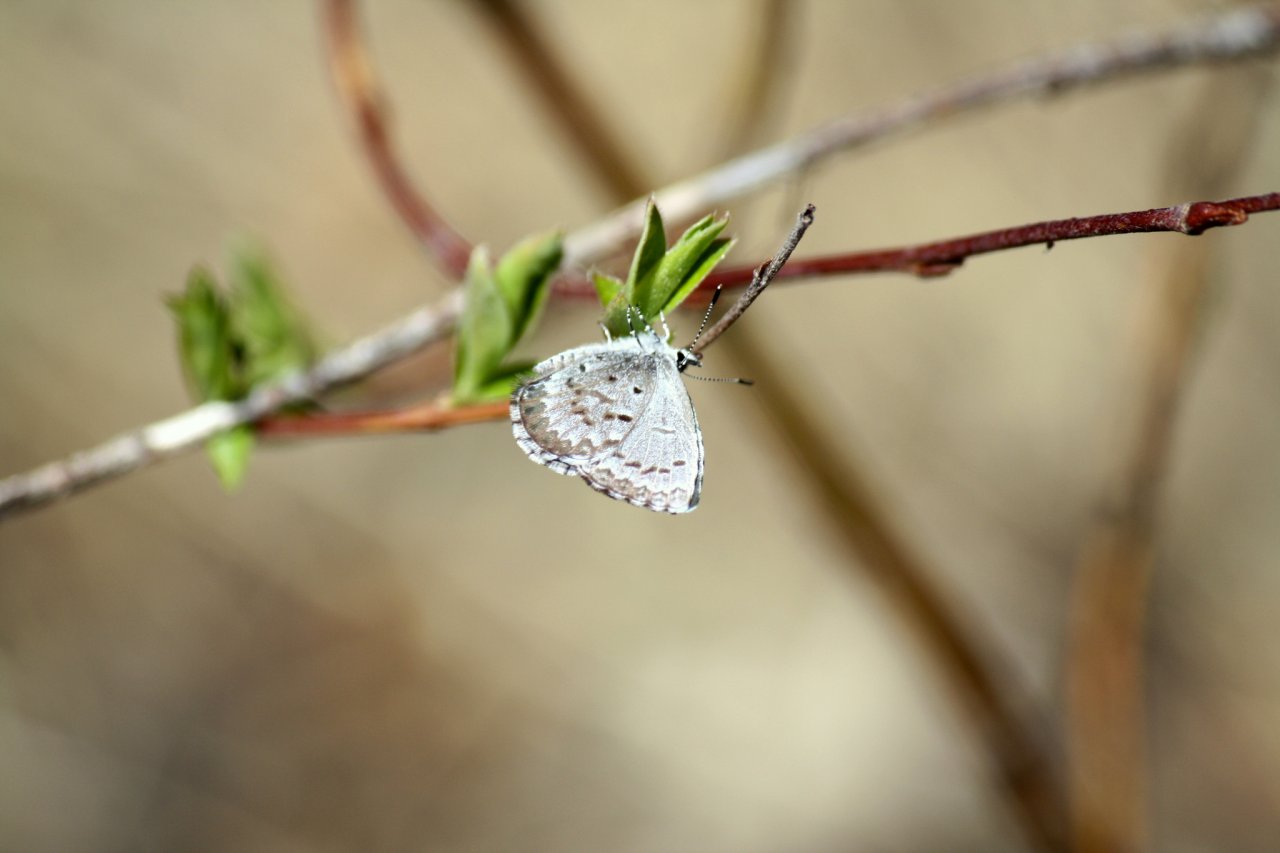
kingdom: Animalia
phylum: Arthropoda
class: Insecta
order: Lepidoptera
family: Lycaenidae
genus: Celastrina
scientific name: Celastrina lucia
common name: Northern Spring Azure
